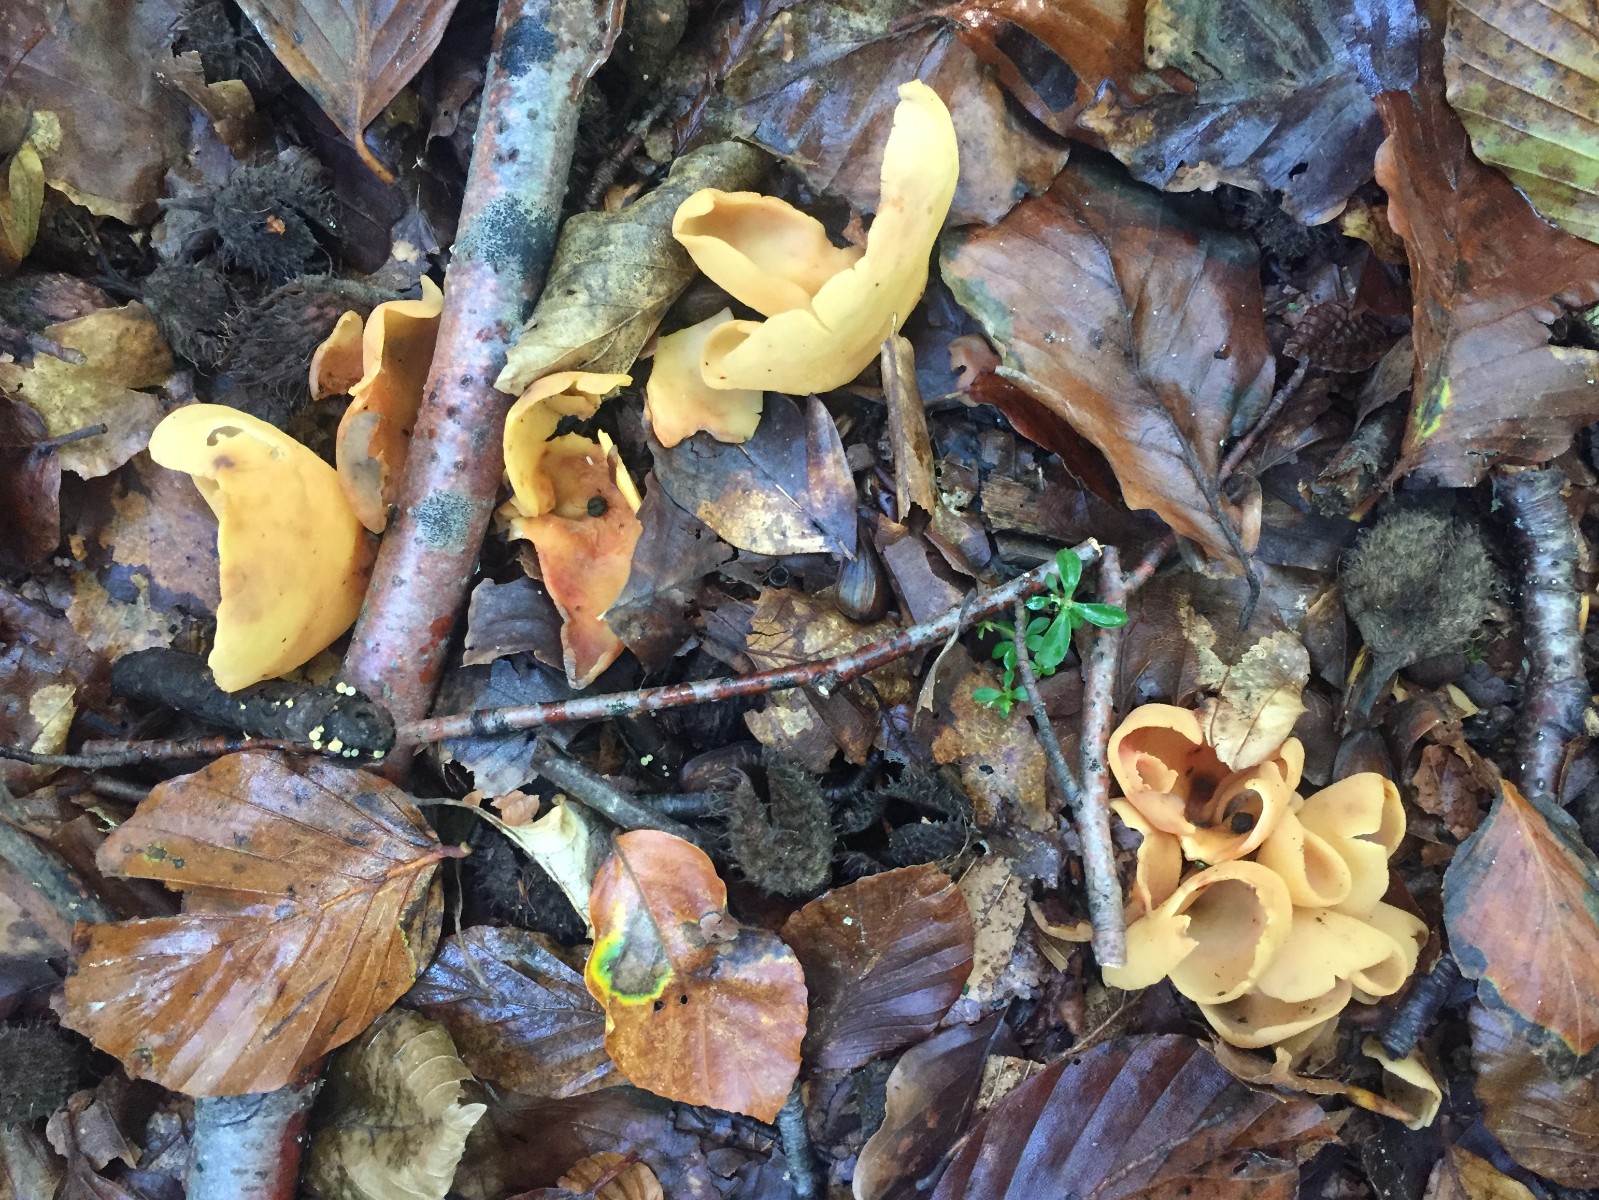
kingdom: Fungi
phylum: Ascomycota
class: Pezizomycetes
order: Pezizales
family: Otideaceae
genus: Otidea
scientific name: Otidea onotica
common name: æsel-ørebæger
